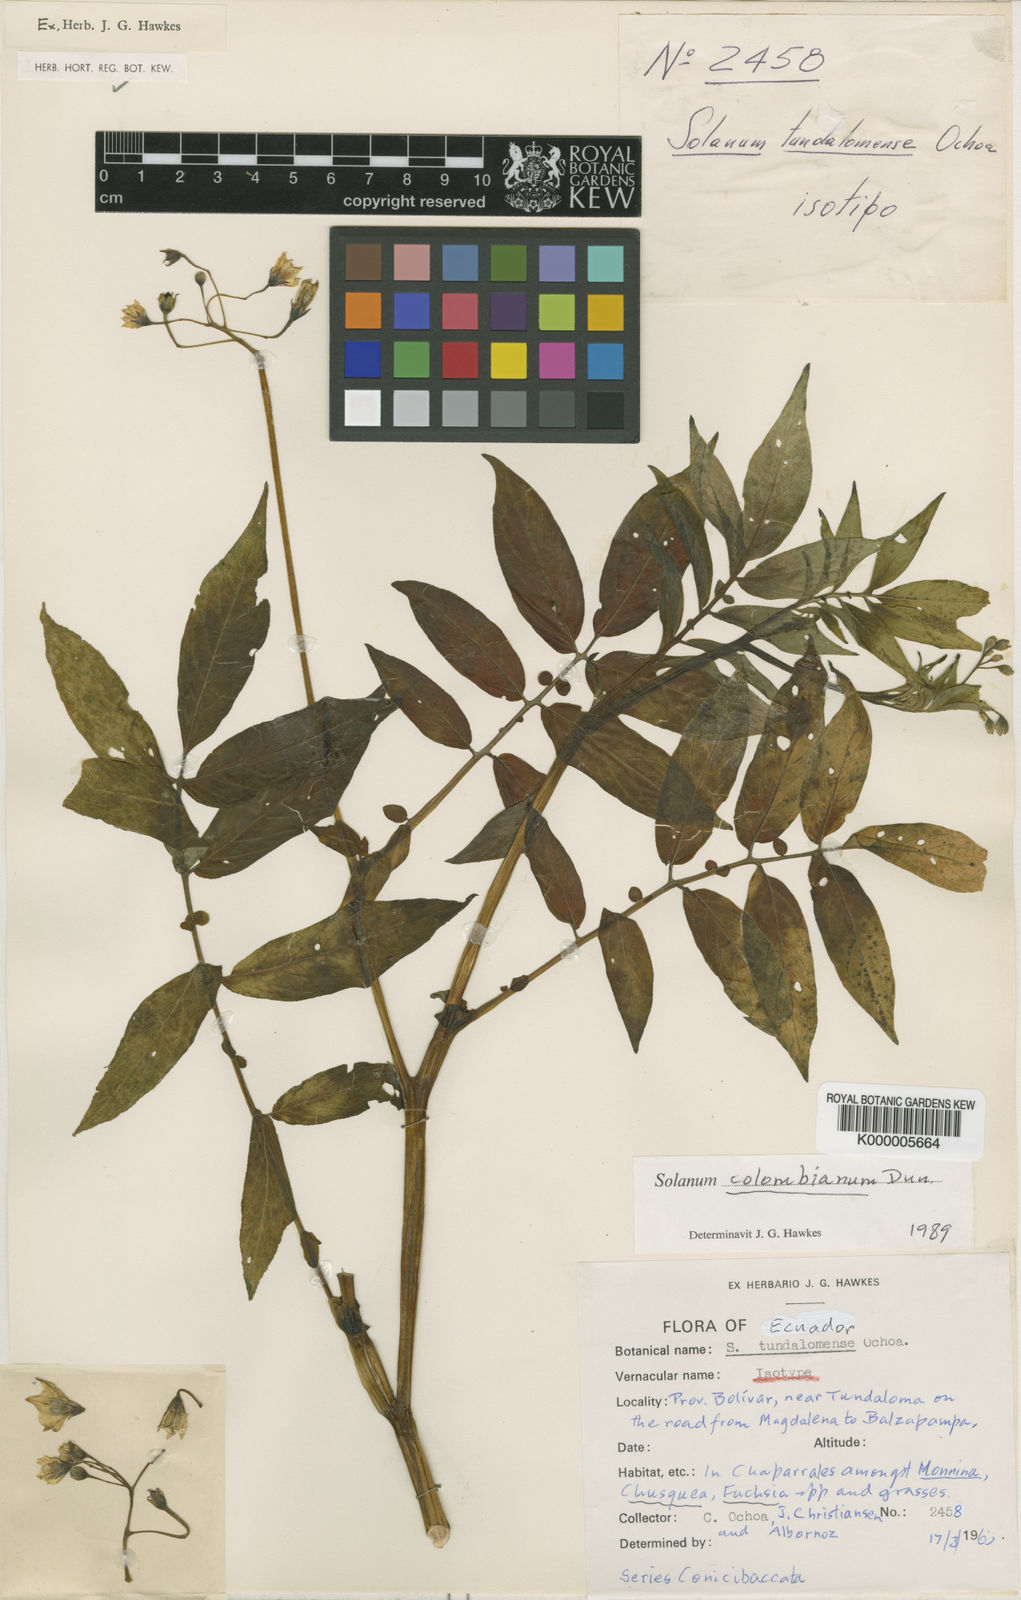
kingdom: Plantae
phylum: Tracheophyta
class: Magnoliopsida
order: Solanales
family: Solanaceae
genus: Solanum
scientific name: Solanum colombianum
